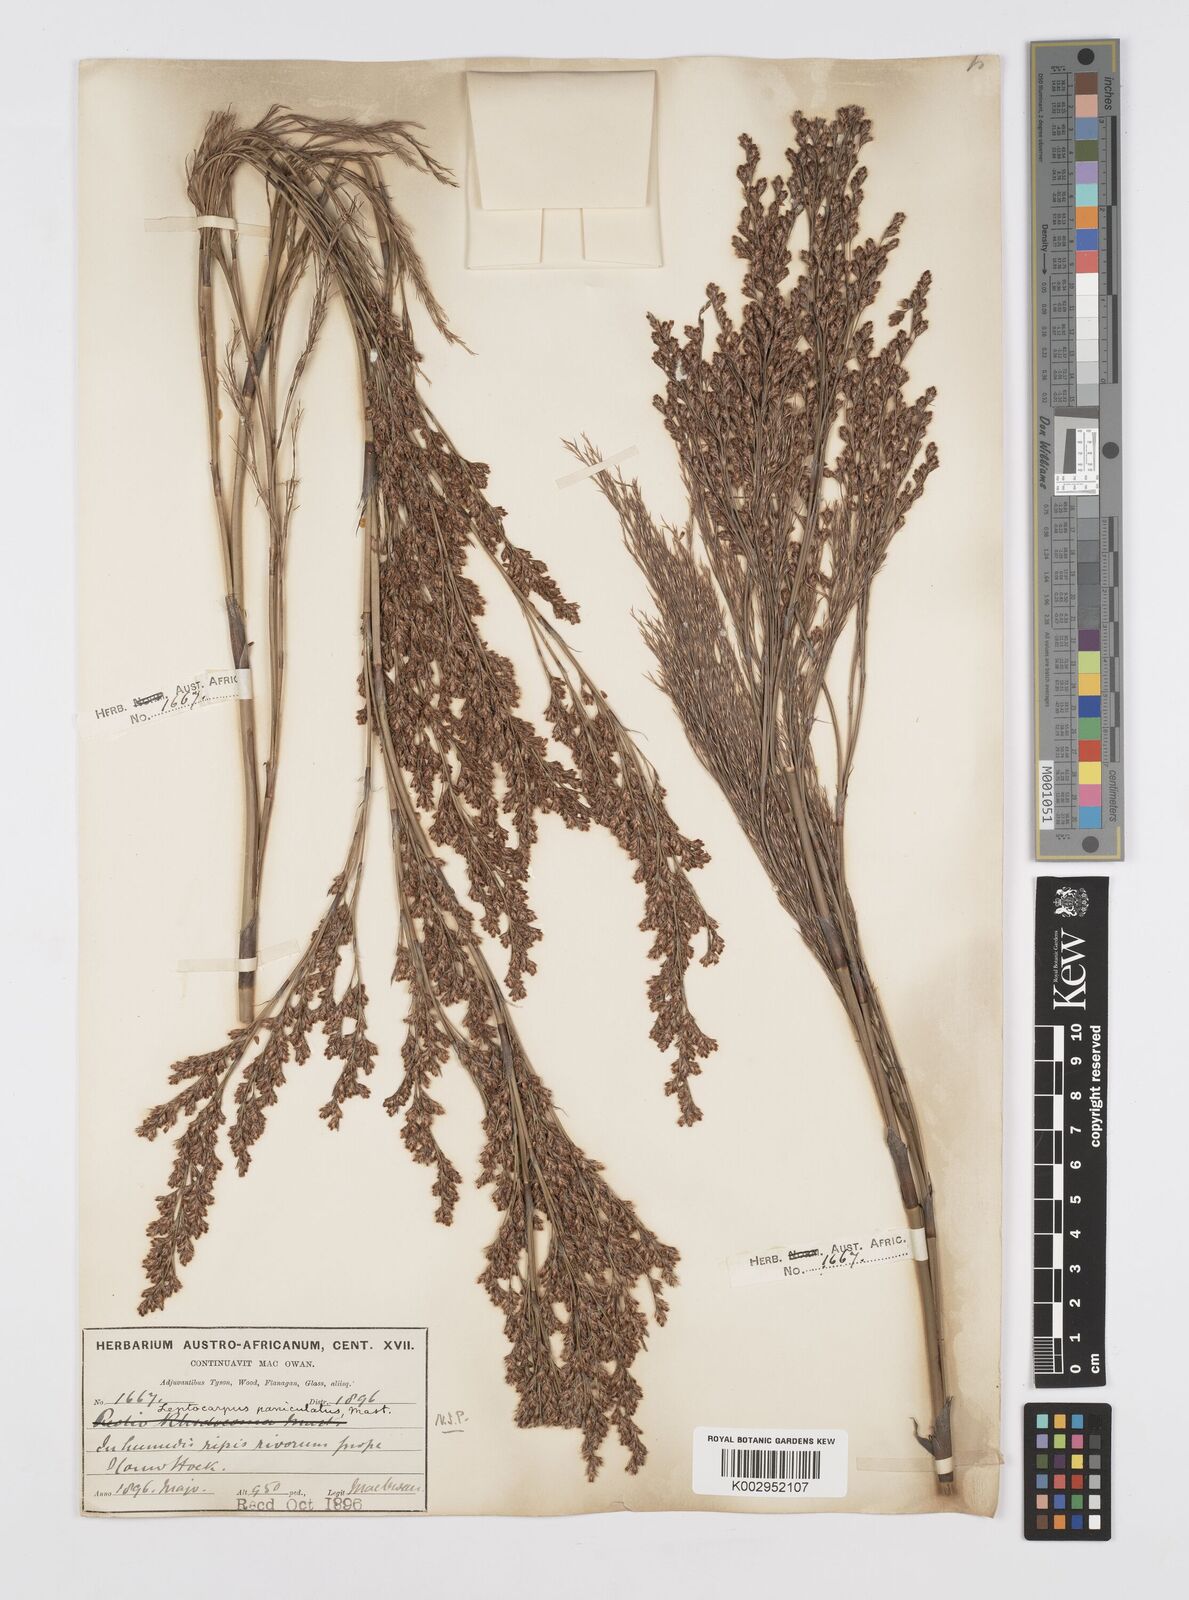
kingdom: Plantae
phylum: Tracheophyta
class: Liliopsida
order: Poales
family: Restionaceae
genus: Restio
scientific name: Restio paniculatus
